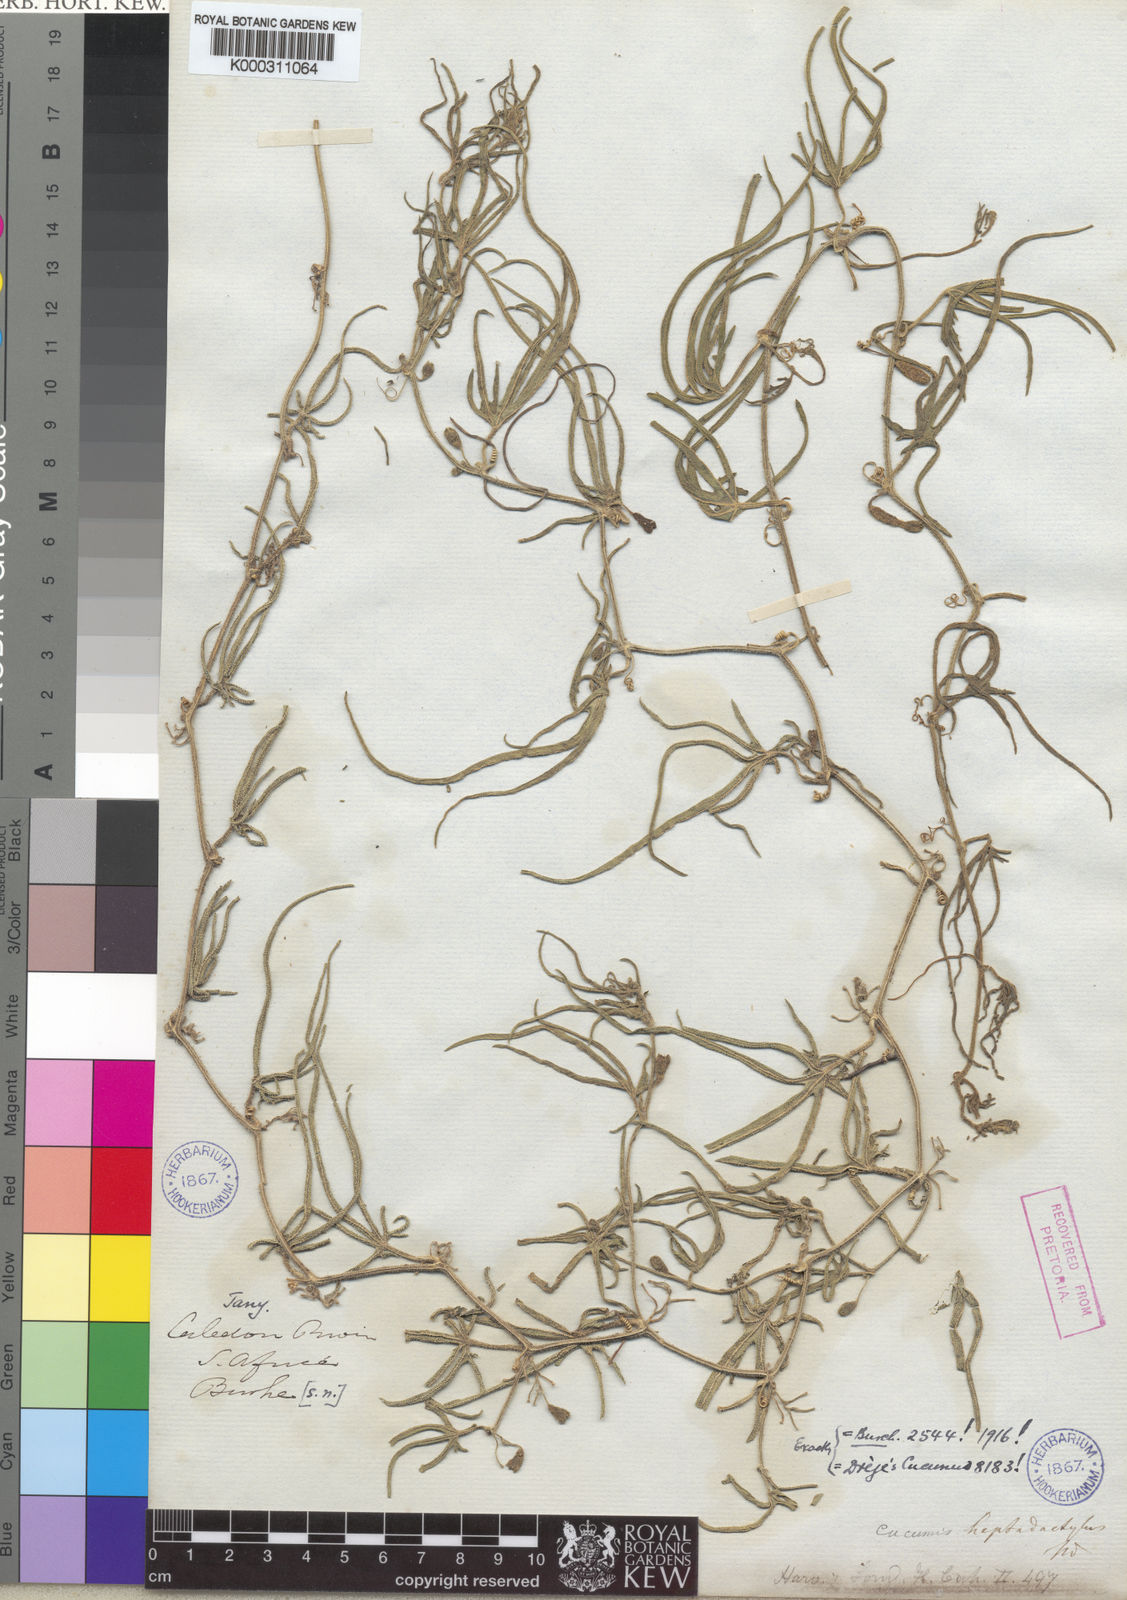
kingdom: Plantae
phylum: Tracheophyta
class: Magnoliopsida
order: Cucurbitales
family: Cucurbitaceae
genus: Cucumis
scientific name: Cucumis heptadactylus
